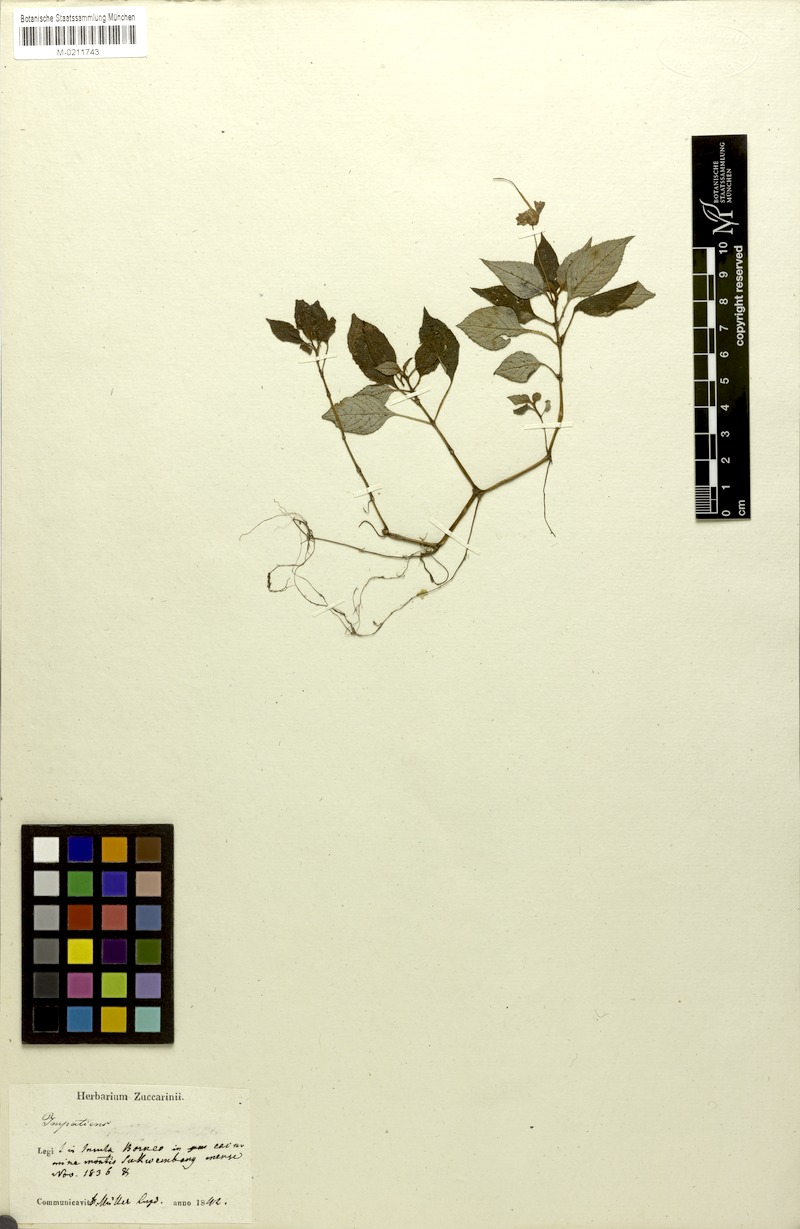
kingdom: Plantae
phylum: Tracheophyta
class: Magnoliopsida
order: Ericales
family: Balsaminaceae
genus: Impatiens
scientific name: Impatiens zollingeri
